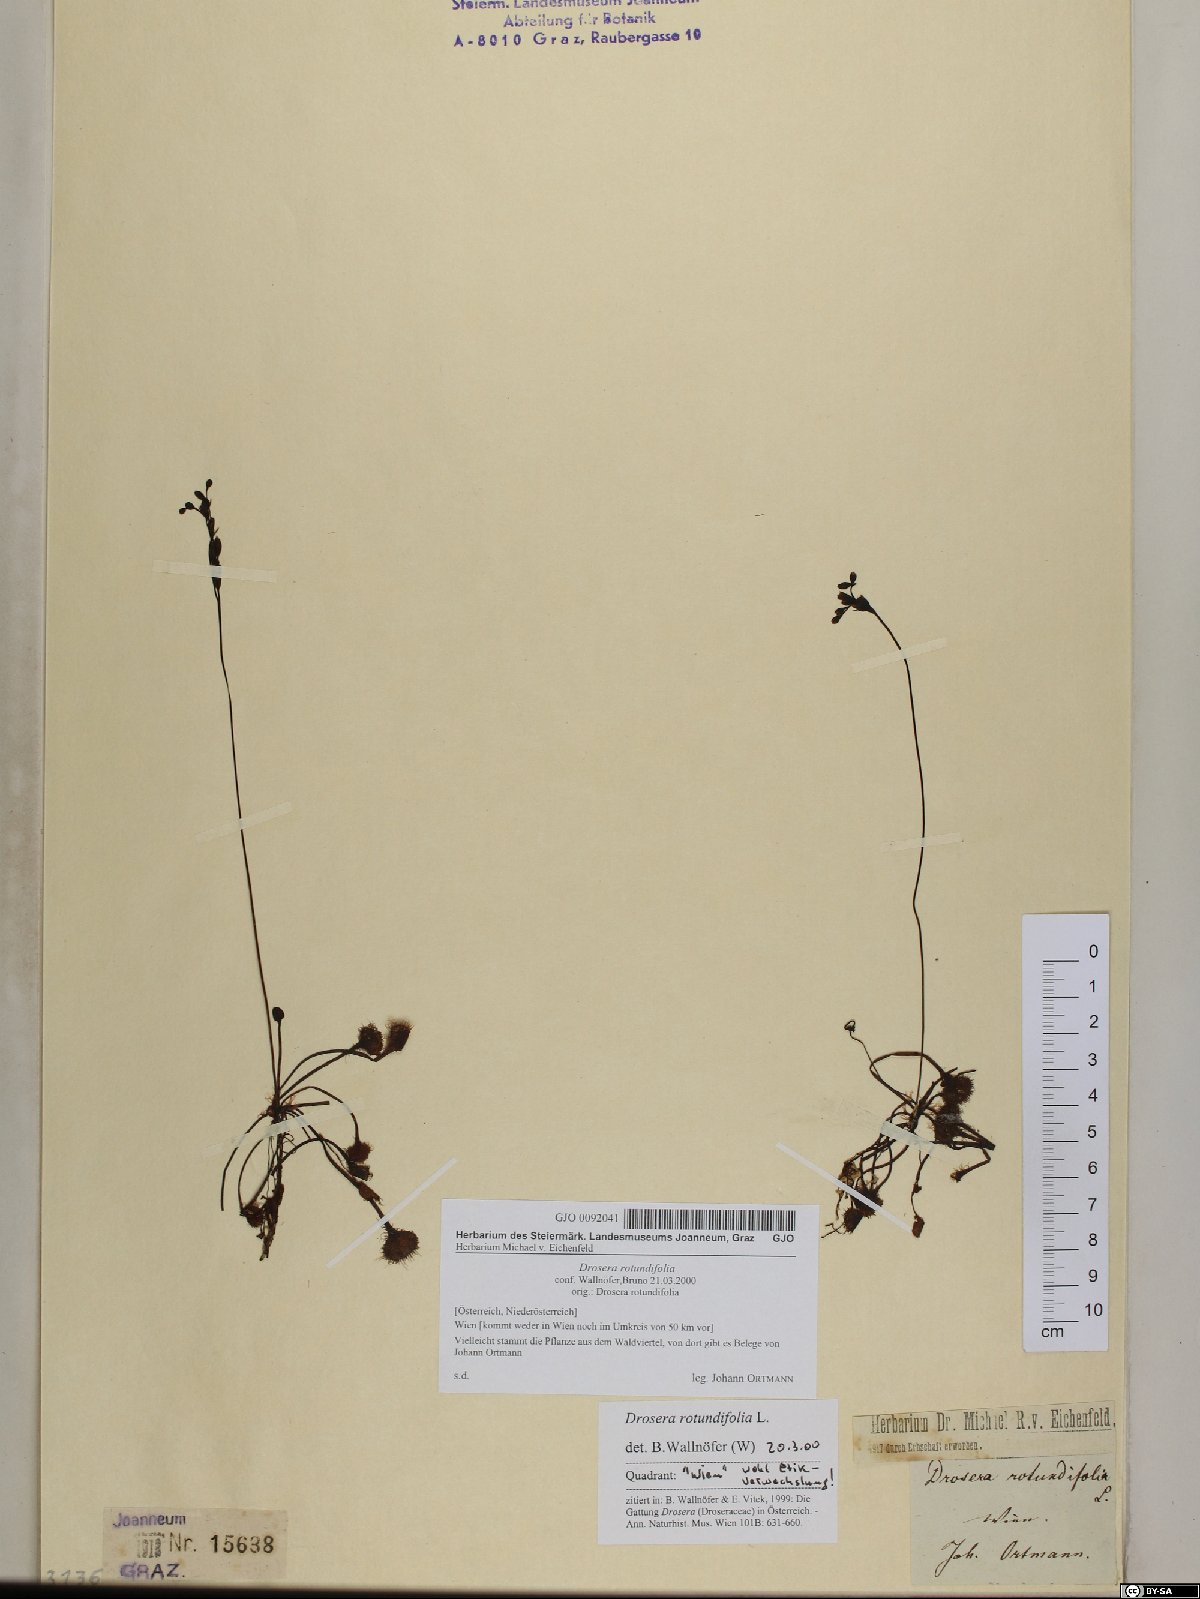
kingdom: Plantae
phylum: Tracheophyta
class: Magnoliopsida
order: Caryophyllales
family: Droseraceae
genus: Drosera
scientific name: Drosera rotundifolia
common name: Round-leaved sundew
